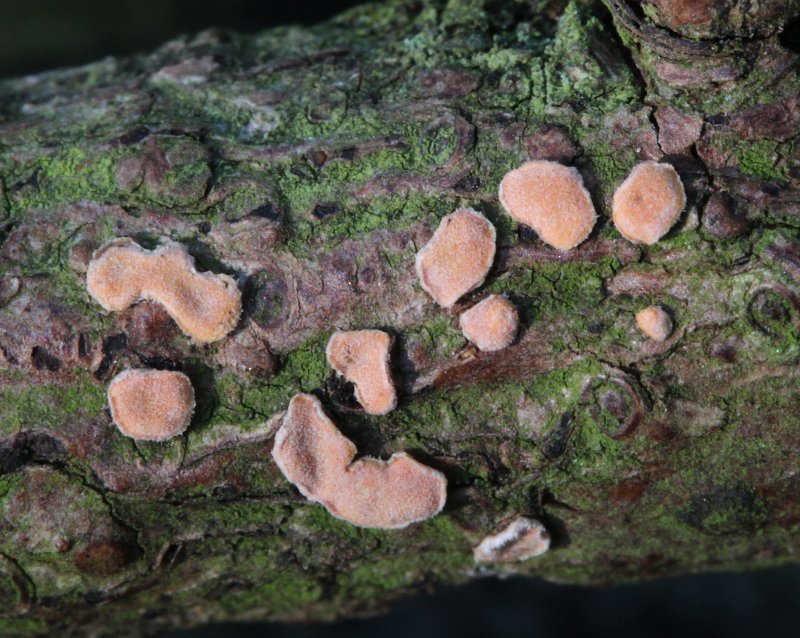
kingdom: Fungi
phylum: Basidiomycota
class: Agaricomycetes
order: Russulales
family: Stereaceae
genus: Aleurodiscus
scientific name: Aleurodiscus amorphus
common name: orange skiveskorpe
